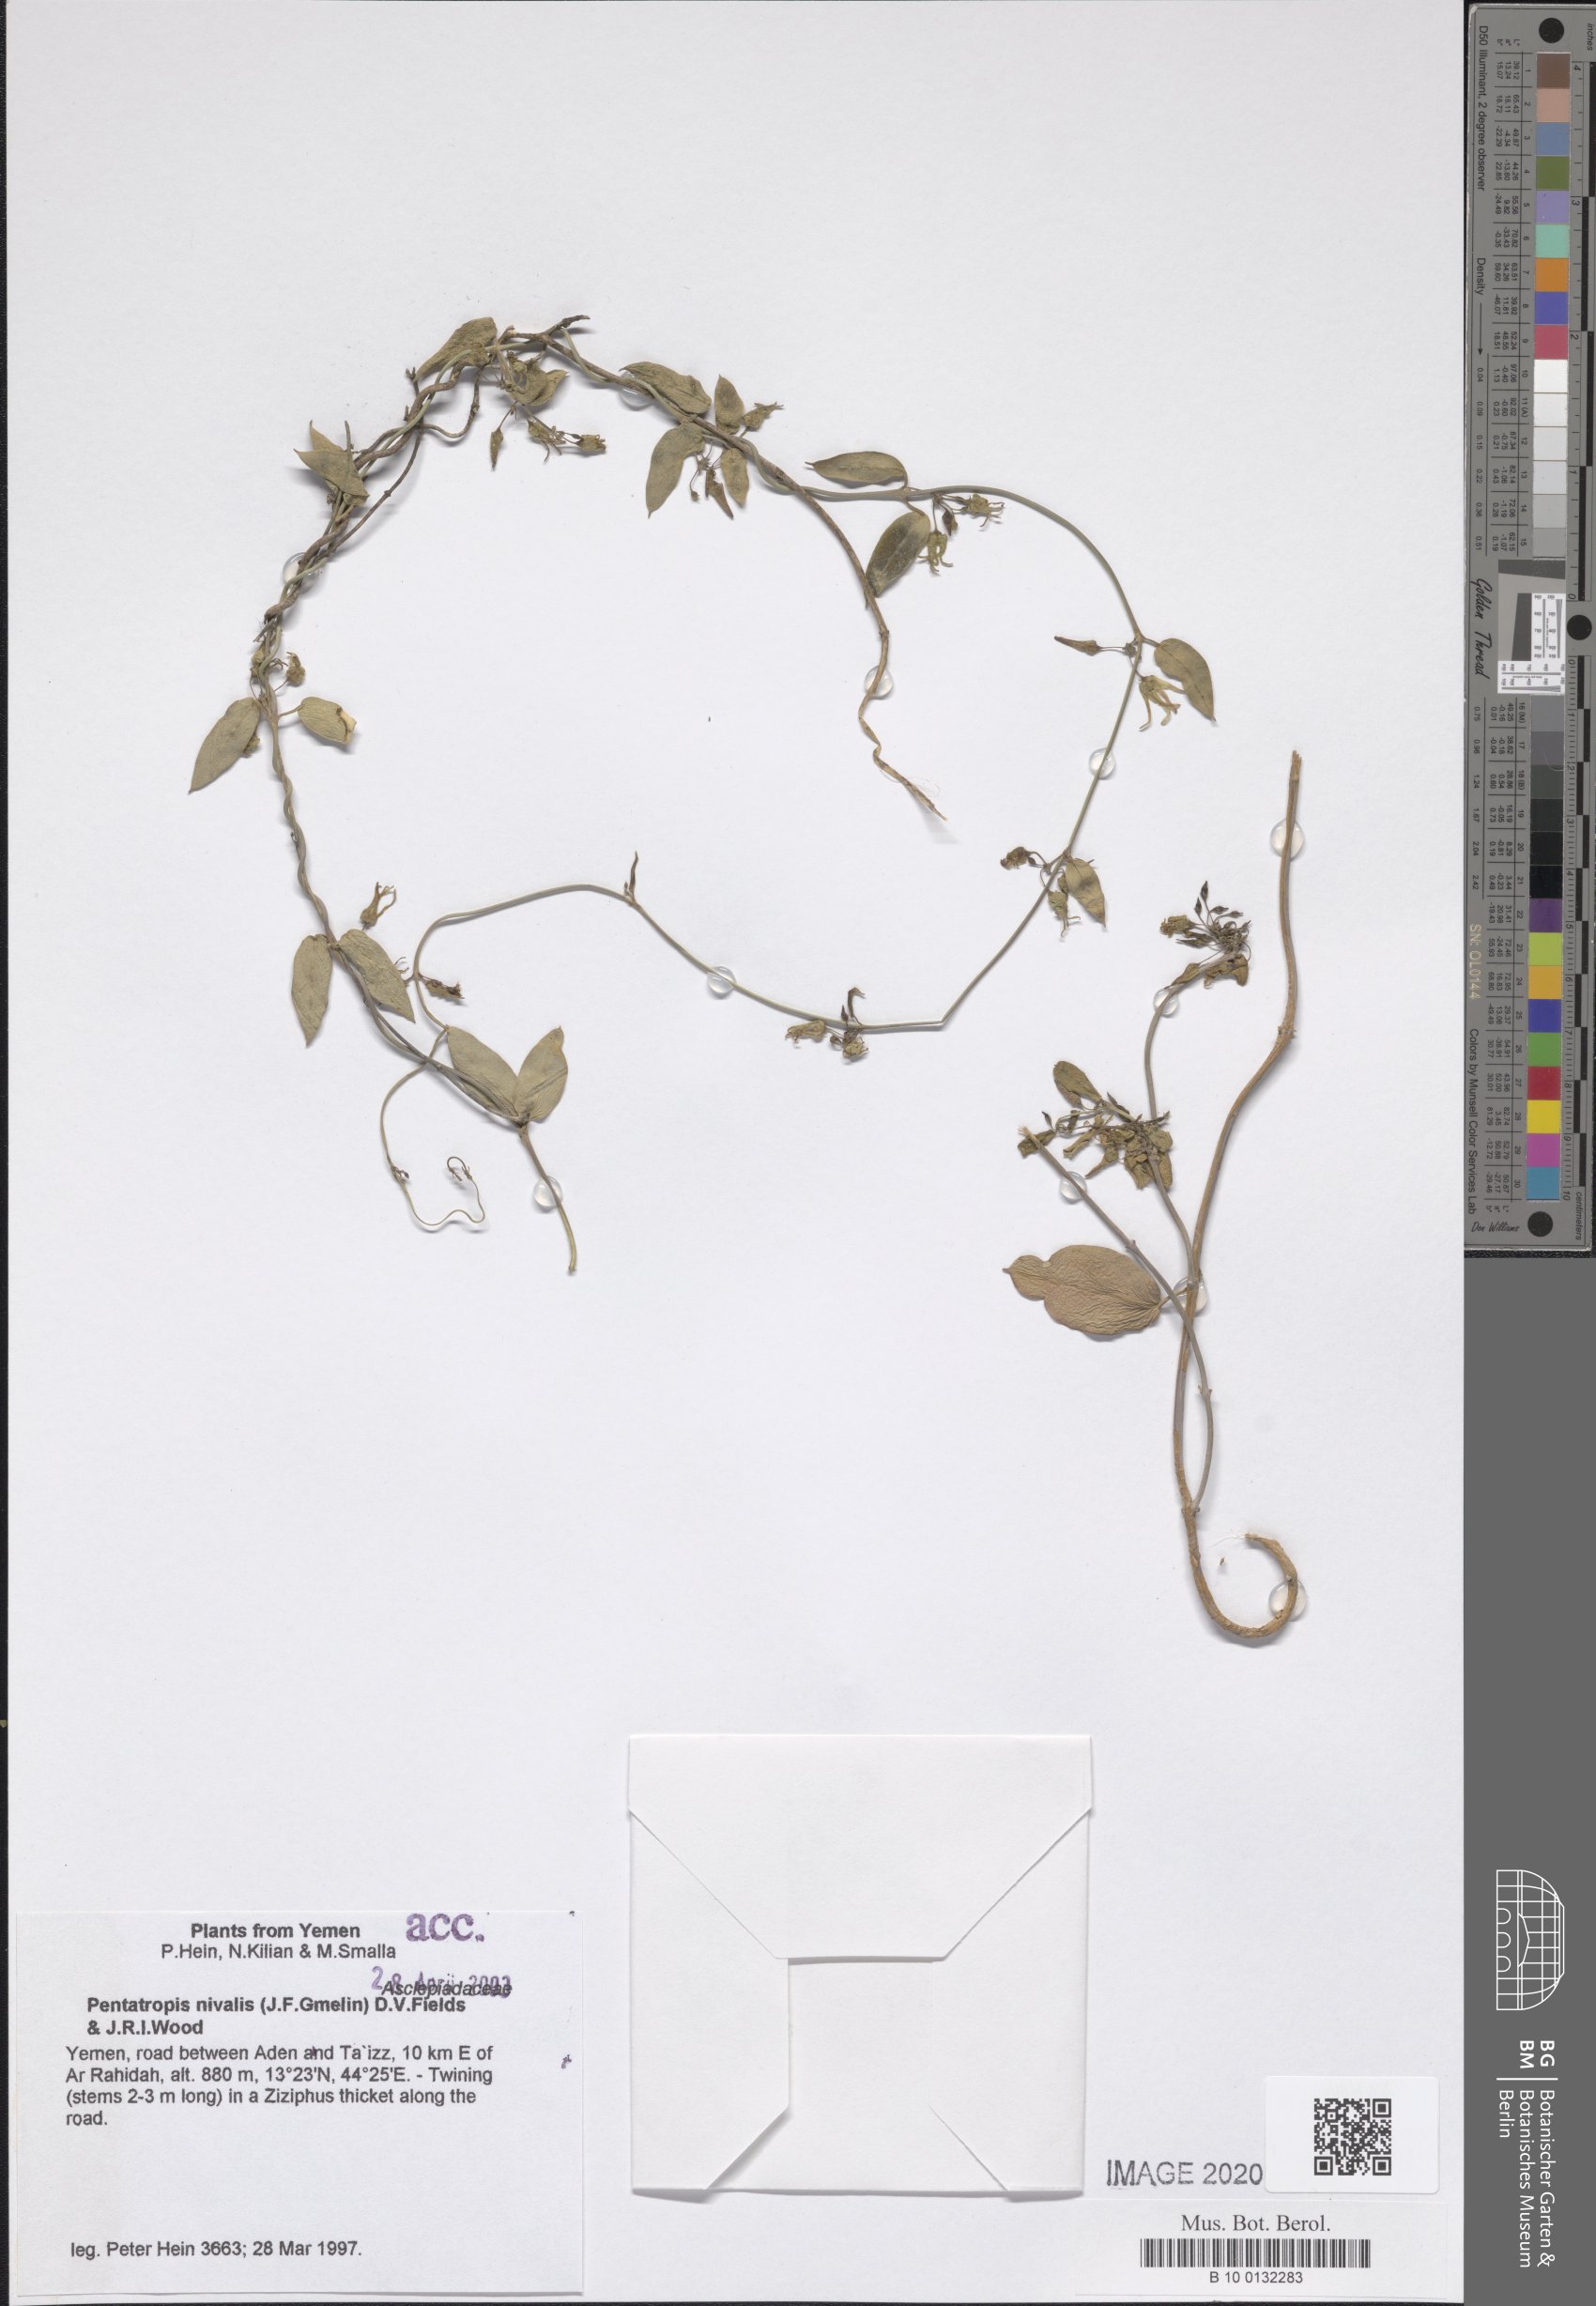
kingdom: Plantae
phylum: Tracheophyta
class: Magnoliopsida
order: Gentianales
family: Apocynaceae
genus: Pentatropis
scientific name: Pentatropis nivalis
